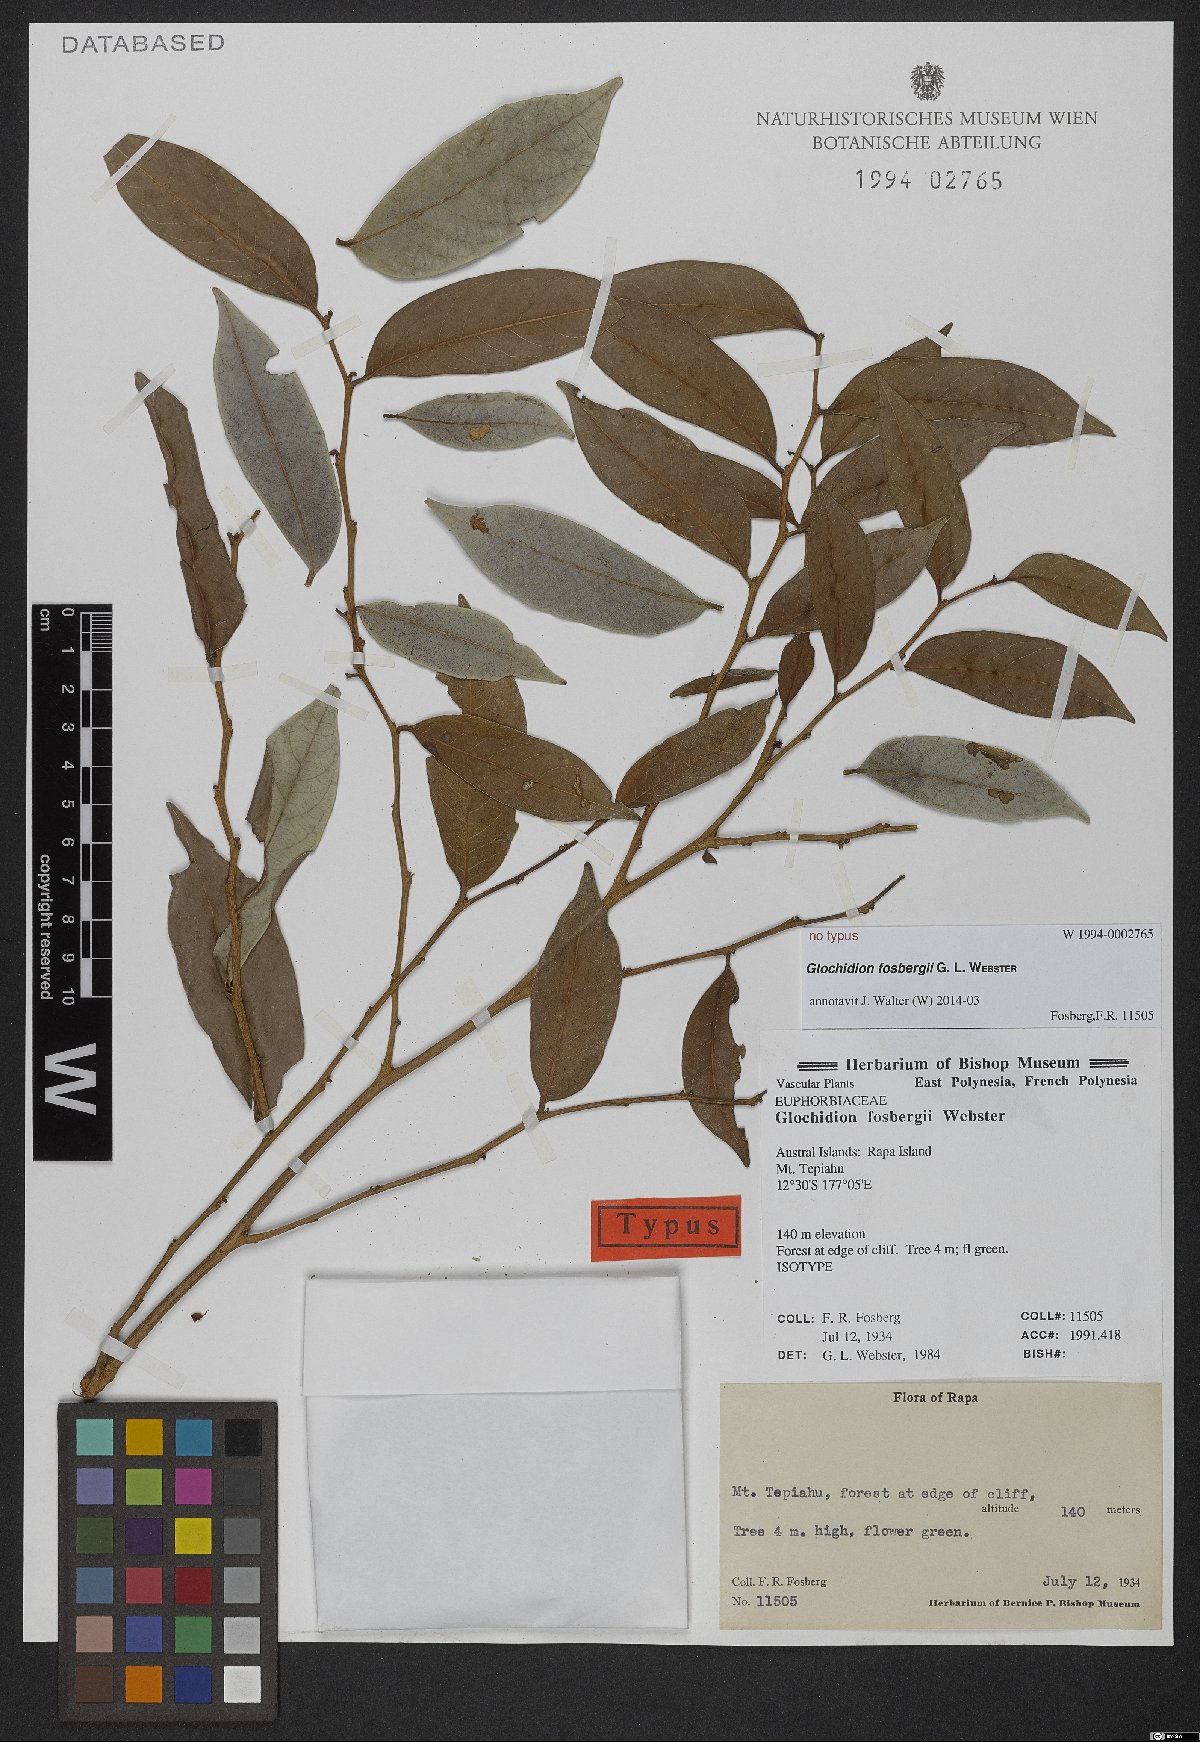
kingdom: Plantae
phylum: Tracheophyta
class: Magnoliopsida
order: Malpighiales
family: Euphorbiaceae
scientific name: Euphorbiaceae
